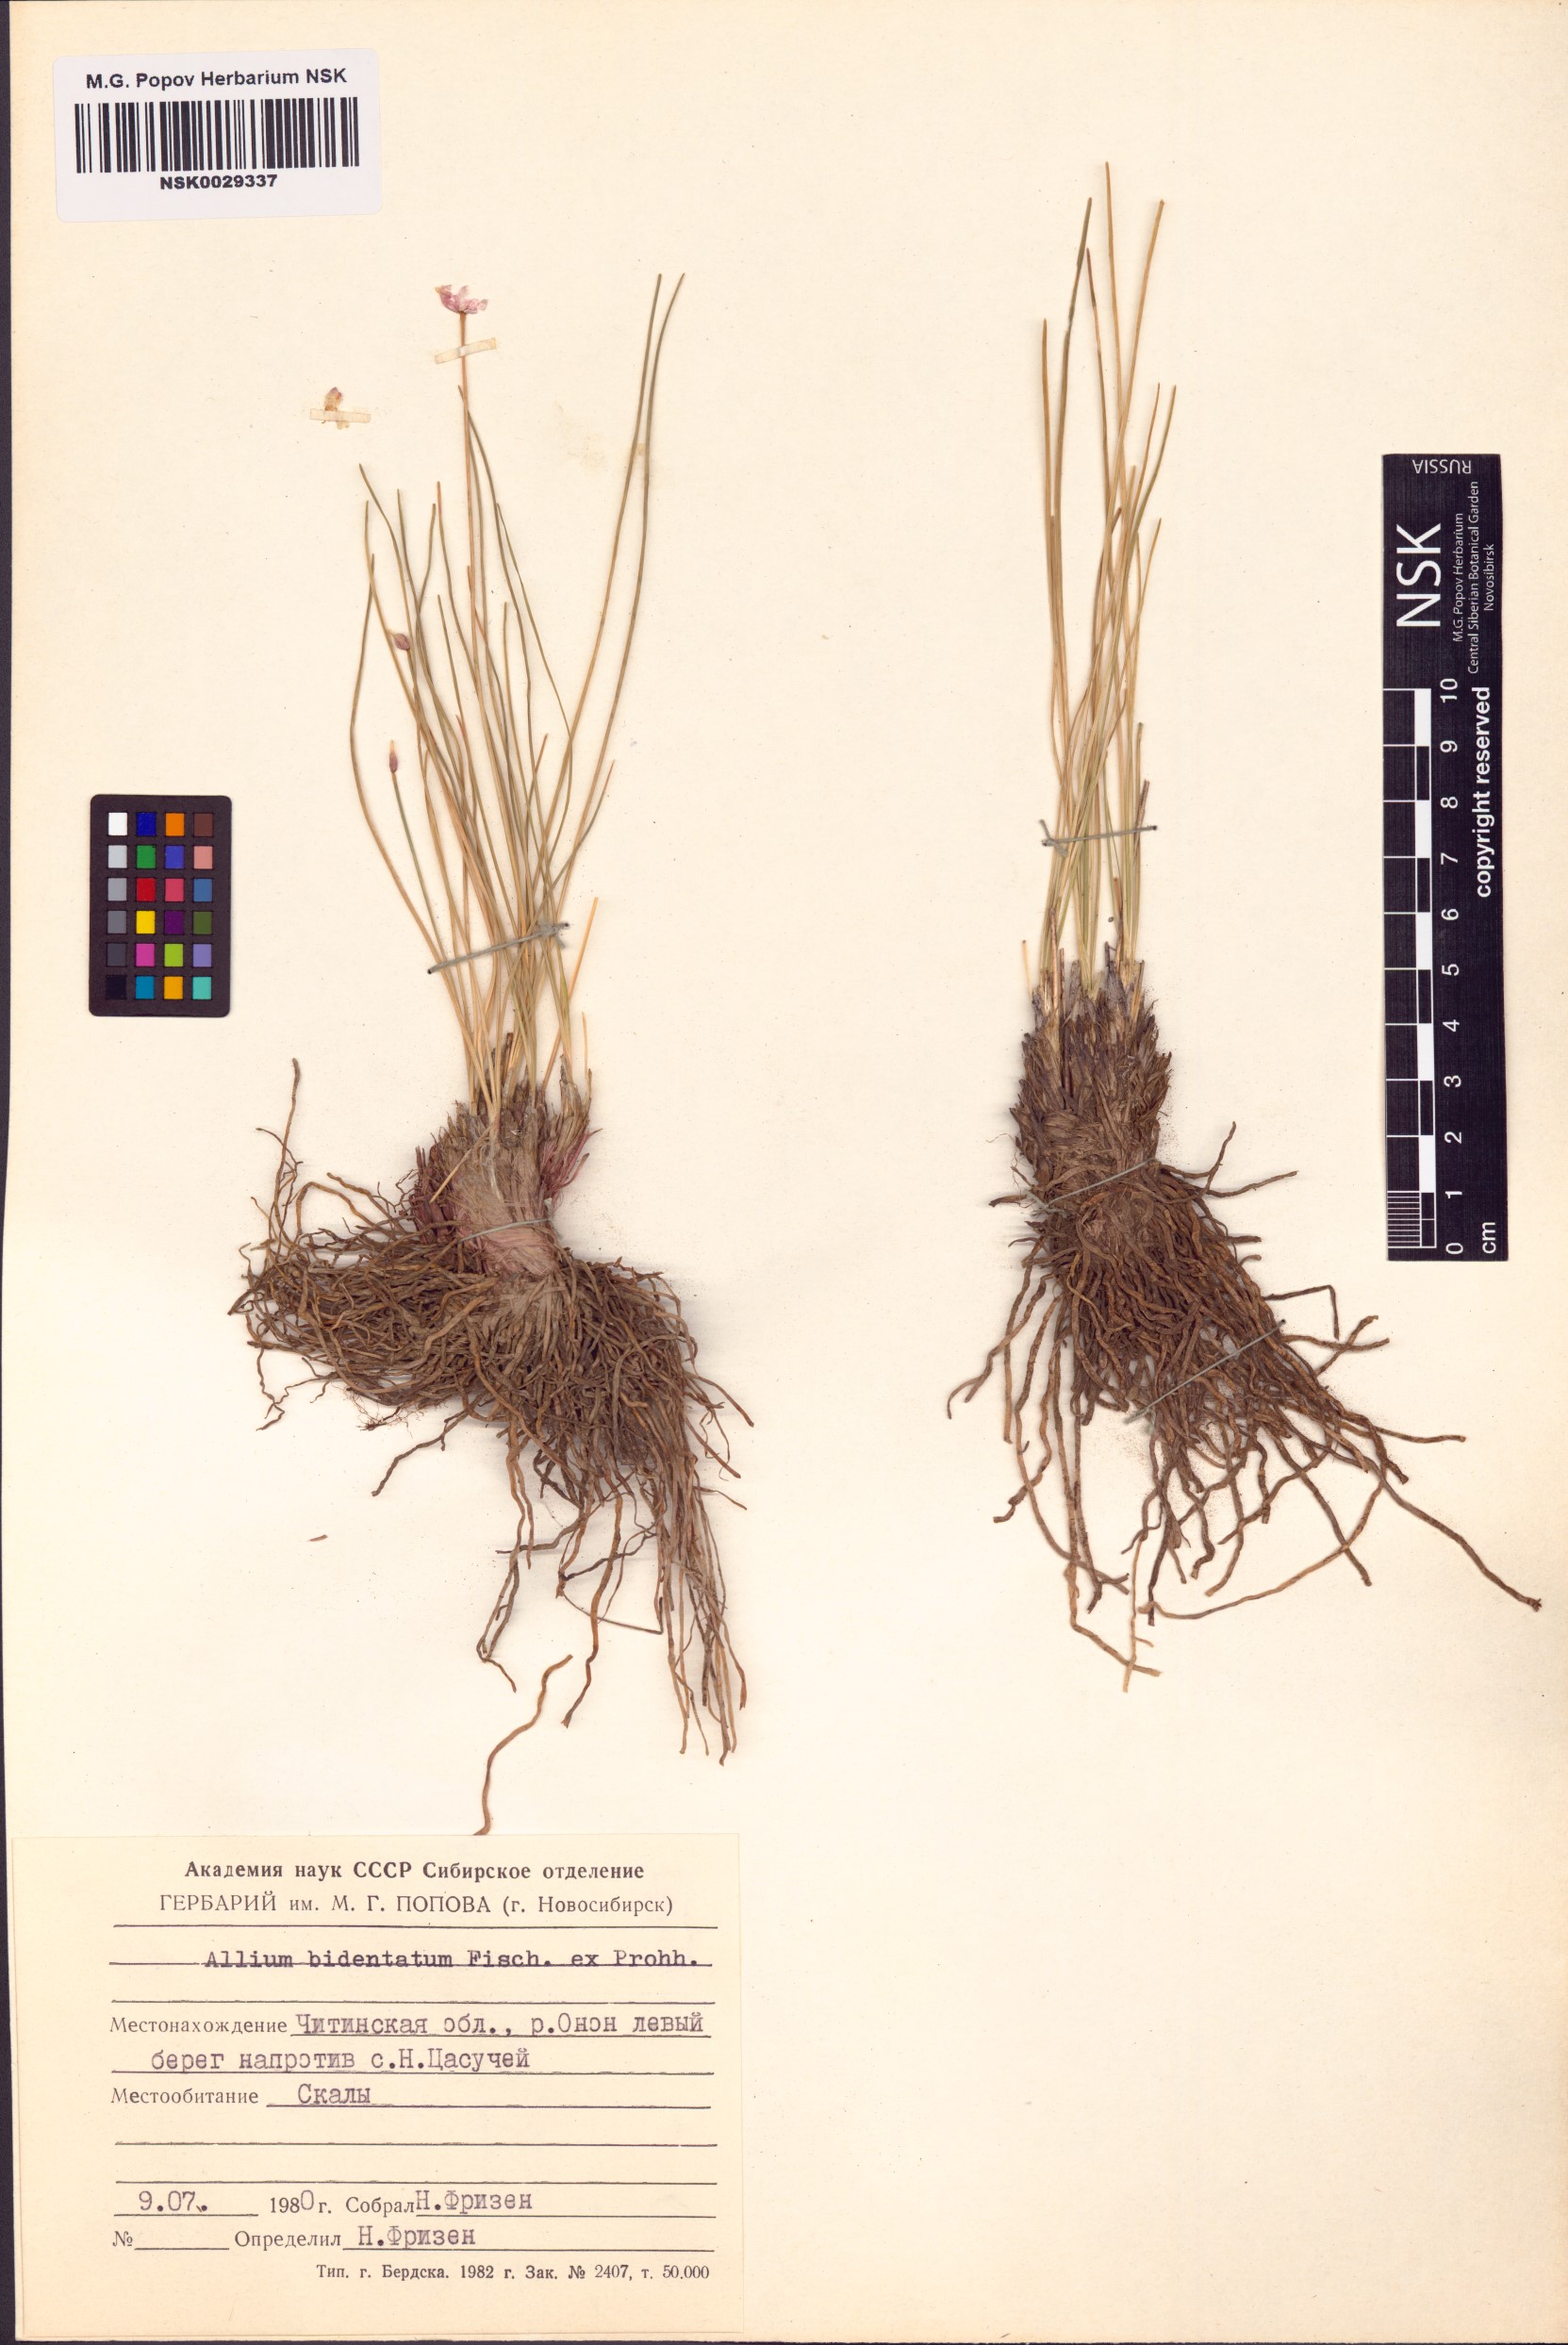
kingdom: Plantae
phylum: Tracheophyta
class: Liliopsida
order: Asparagales
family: Amaryllidaceae
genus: Allium
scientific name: Allium bidentatum
